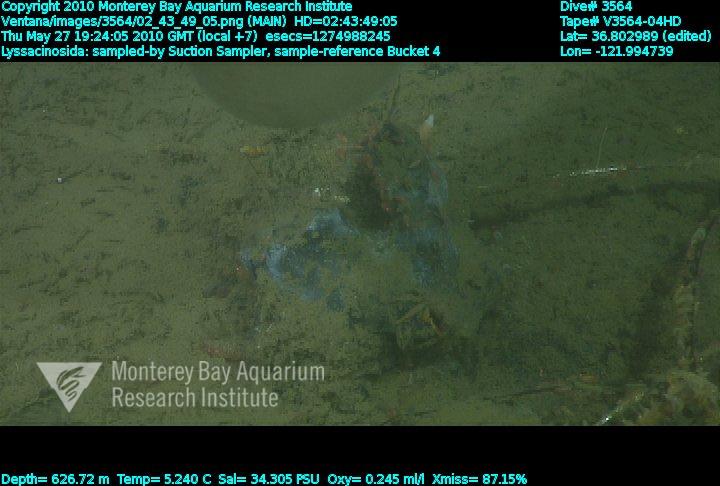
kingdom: Animalia
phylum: Porifera
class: Hexactinellida
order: Lyssacinosida
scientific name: Lyssacinosida
